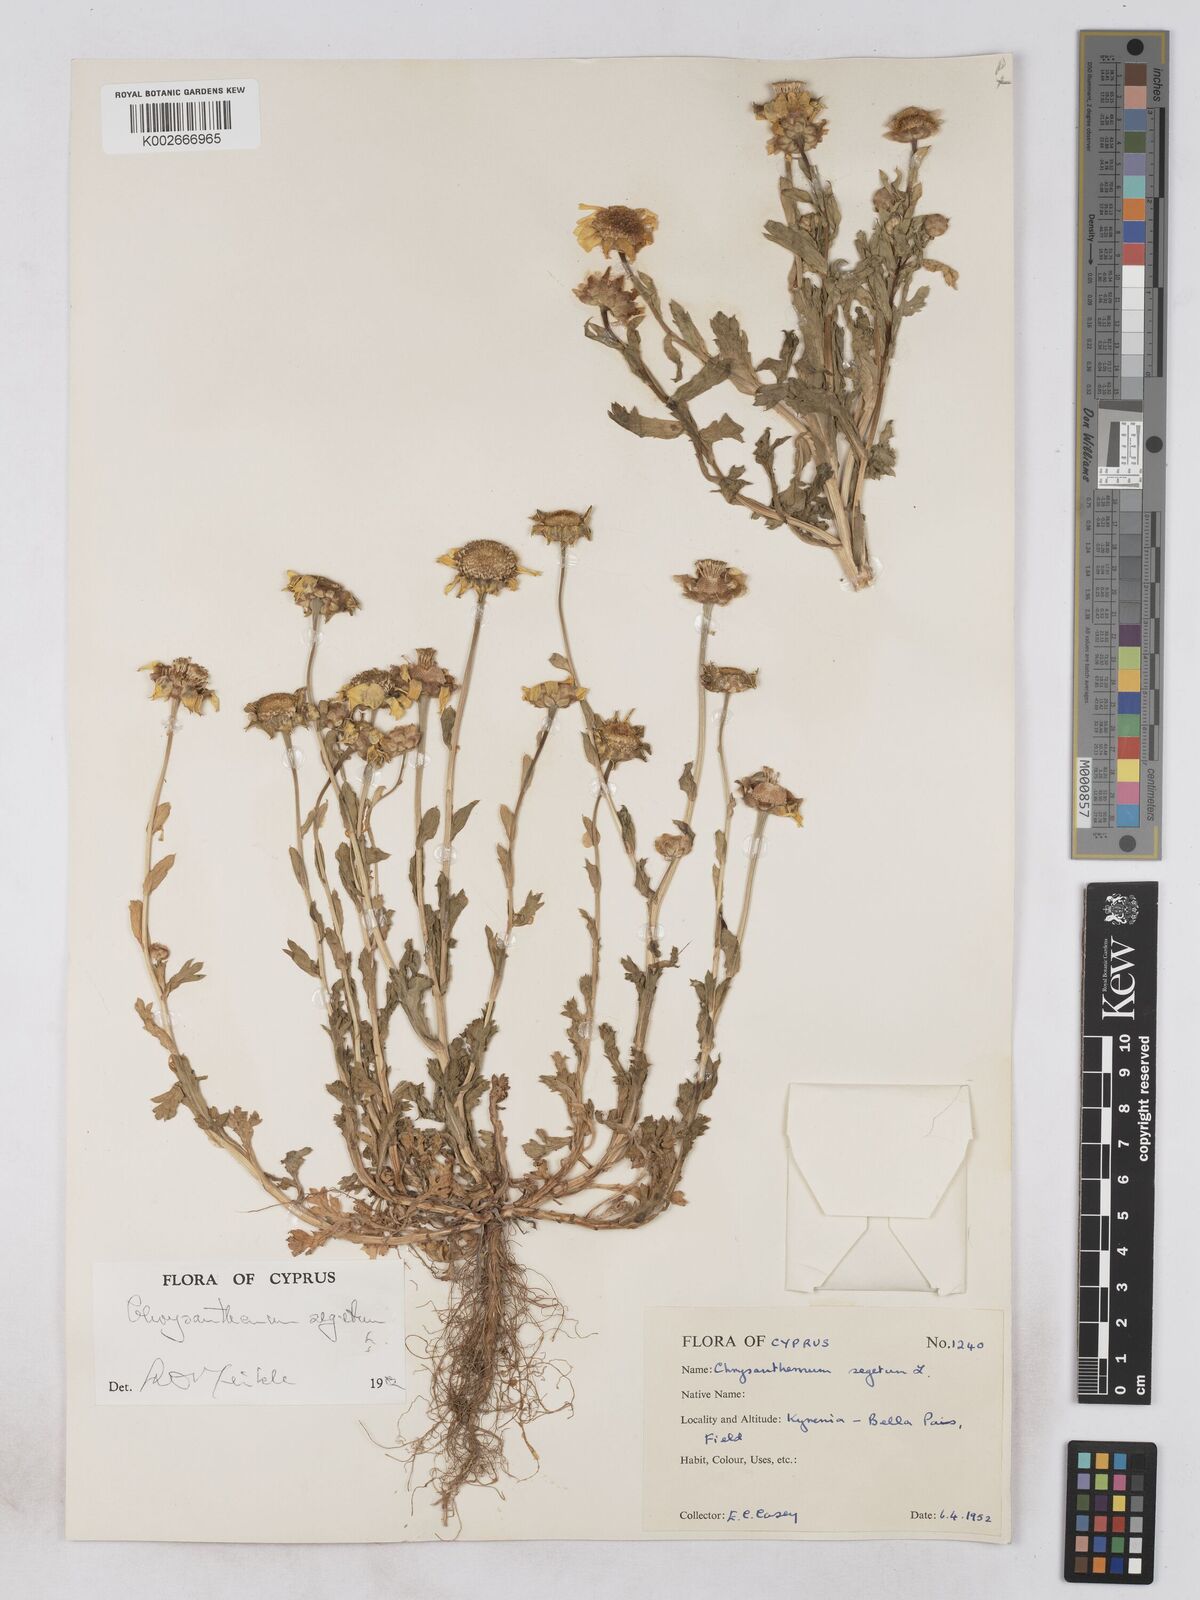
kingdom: Plantae
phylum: Tracheophyta
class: Magnoliopsida
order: Asterales
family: Asteraceae
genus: Glebionis
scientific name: Glebionis segetum
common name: Corndaisy
